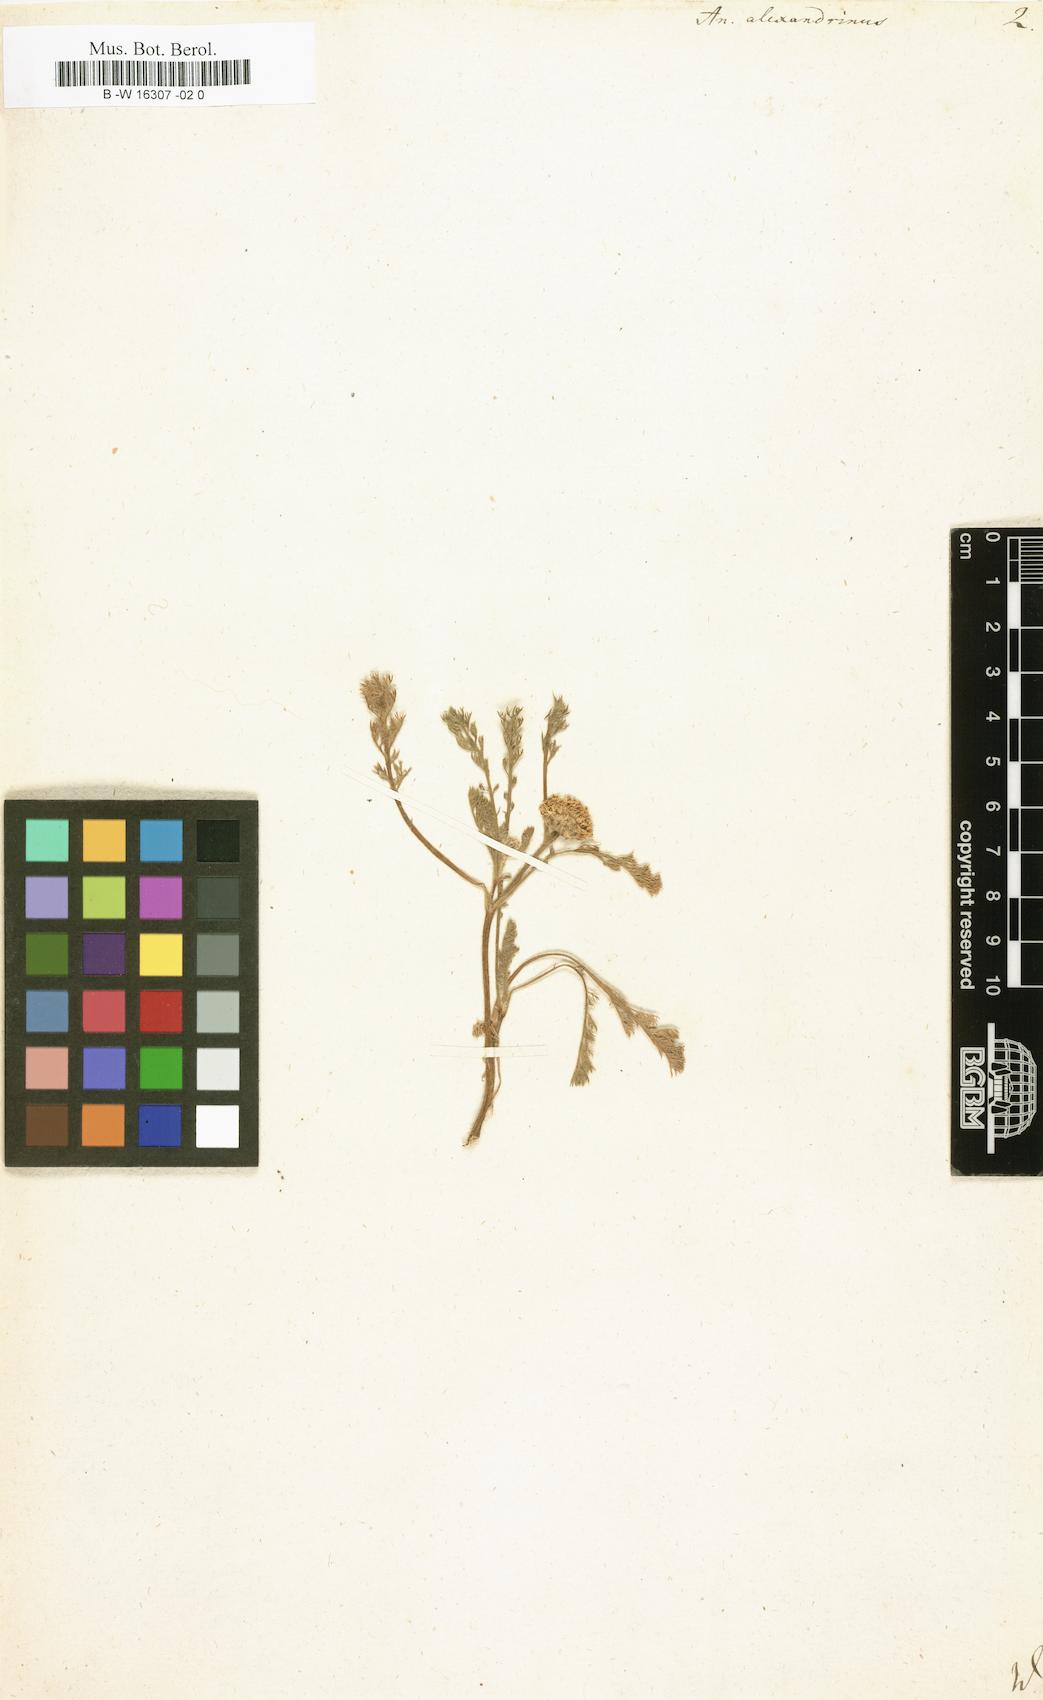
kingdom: Plantae
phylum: Tracheophyta
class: Magnoliopsida
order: Asterales
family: Asteraceae
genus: Anacyclus
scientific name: Anacyclus monanthos
